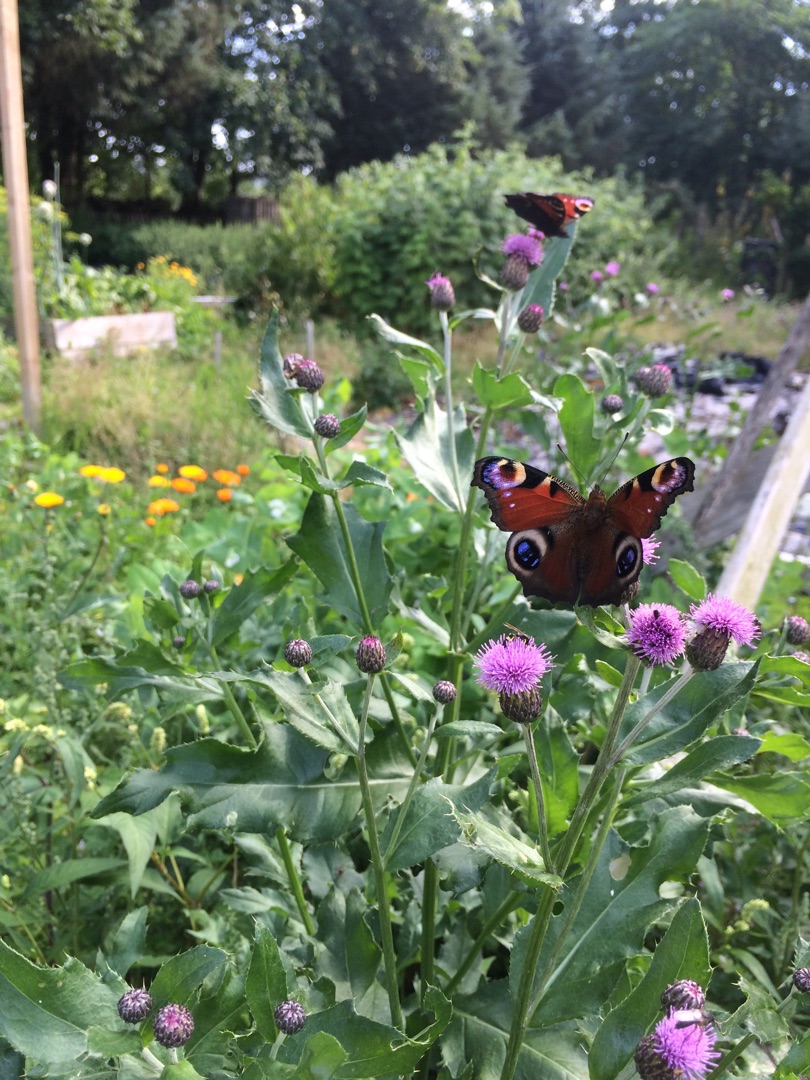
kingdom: Animalia
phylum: Arthropoda
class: Insecta
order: Lepidoptera
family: Nymphalidae
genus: Aglais
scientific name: Aglais io
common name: Dagpåfugleøje
